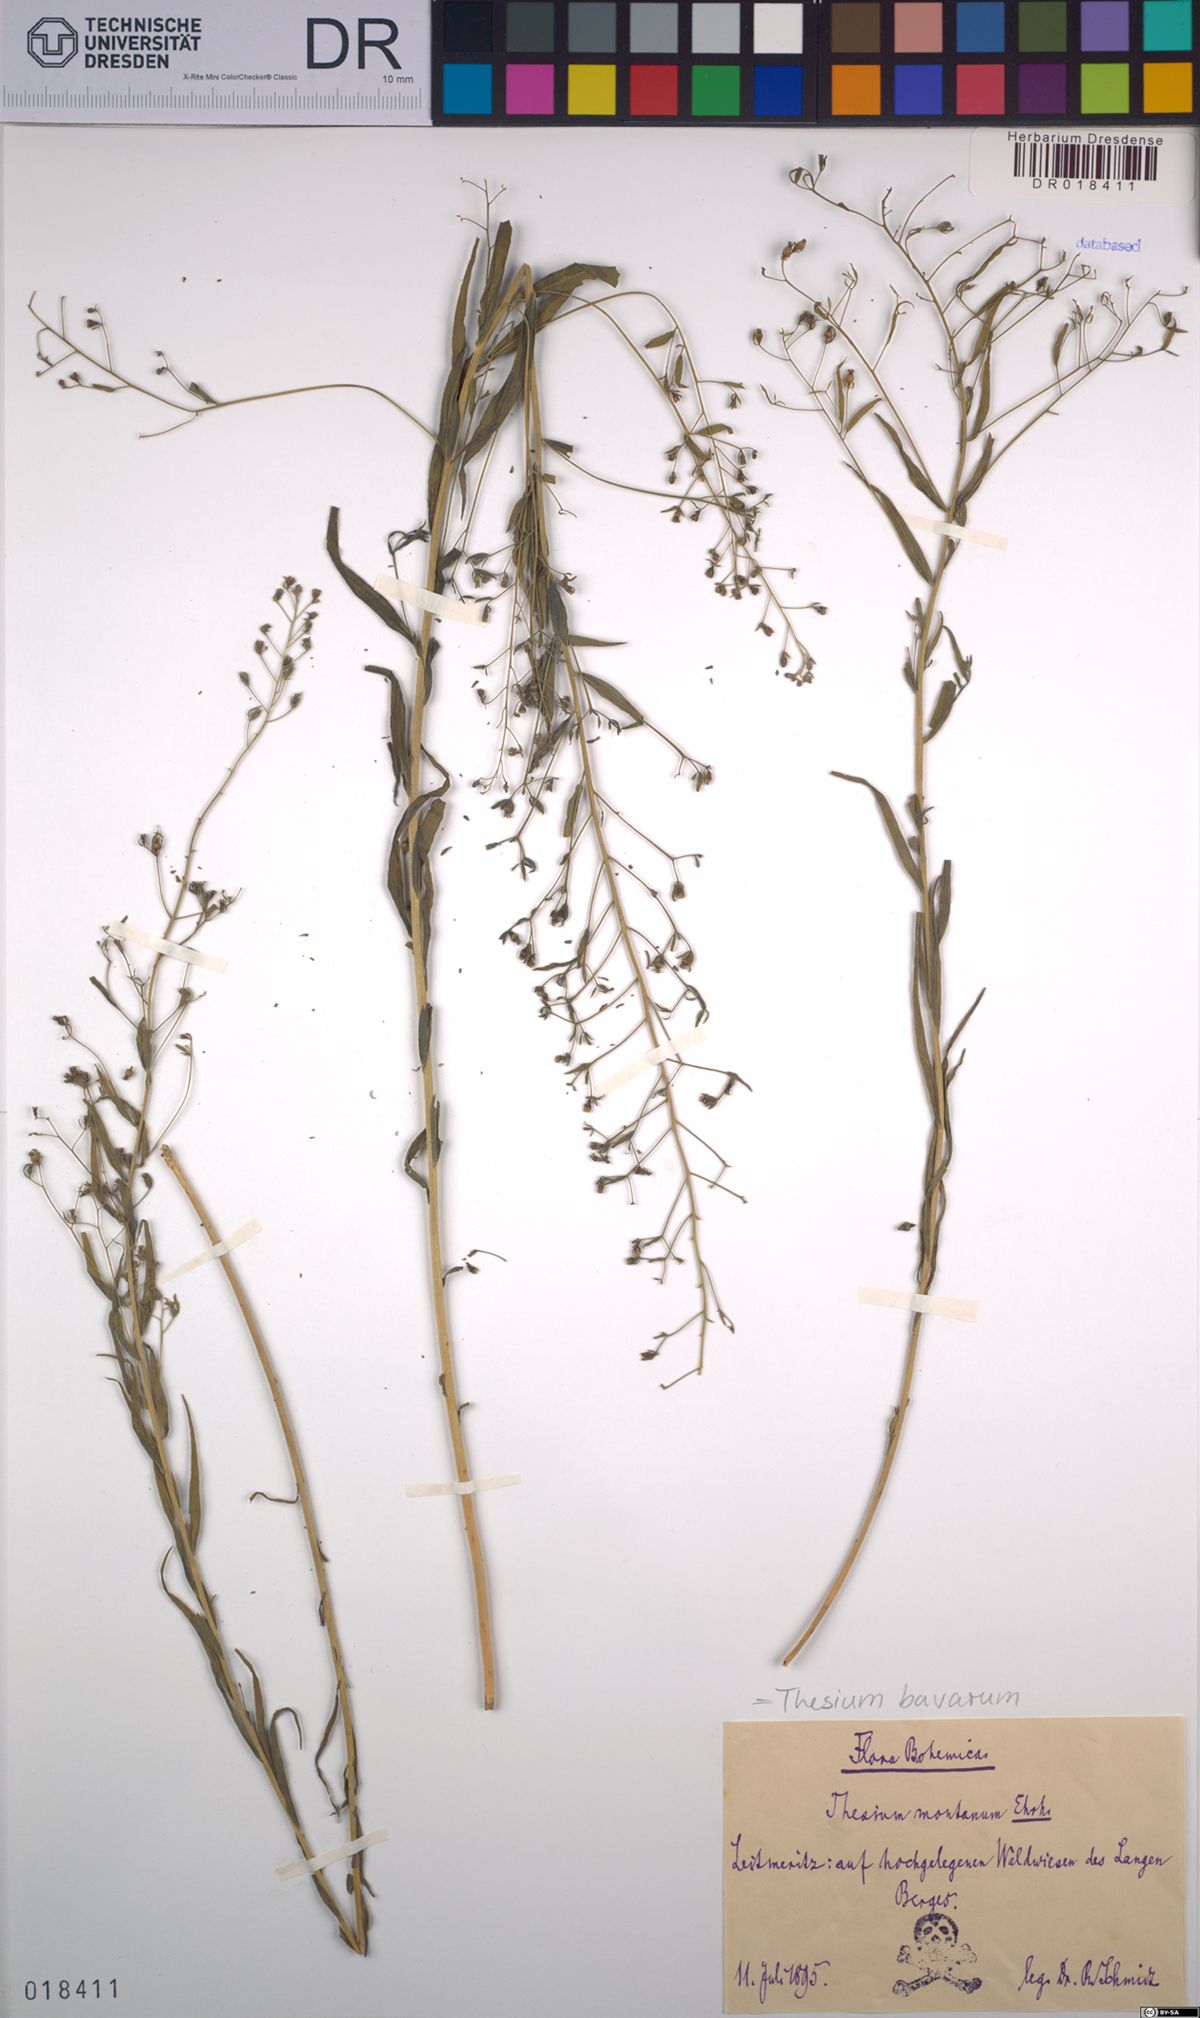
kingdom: Plantae
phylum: Tracheophyta
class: Magnoliopsida
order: Santalales
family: Thesiaceae
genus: Thesium
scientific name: Thesium bavarum
